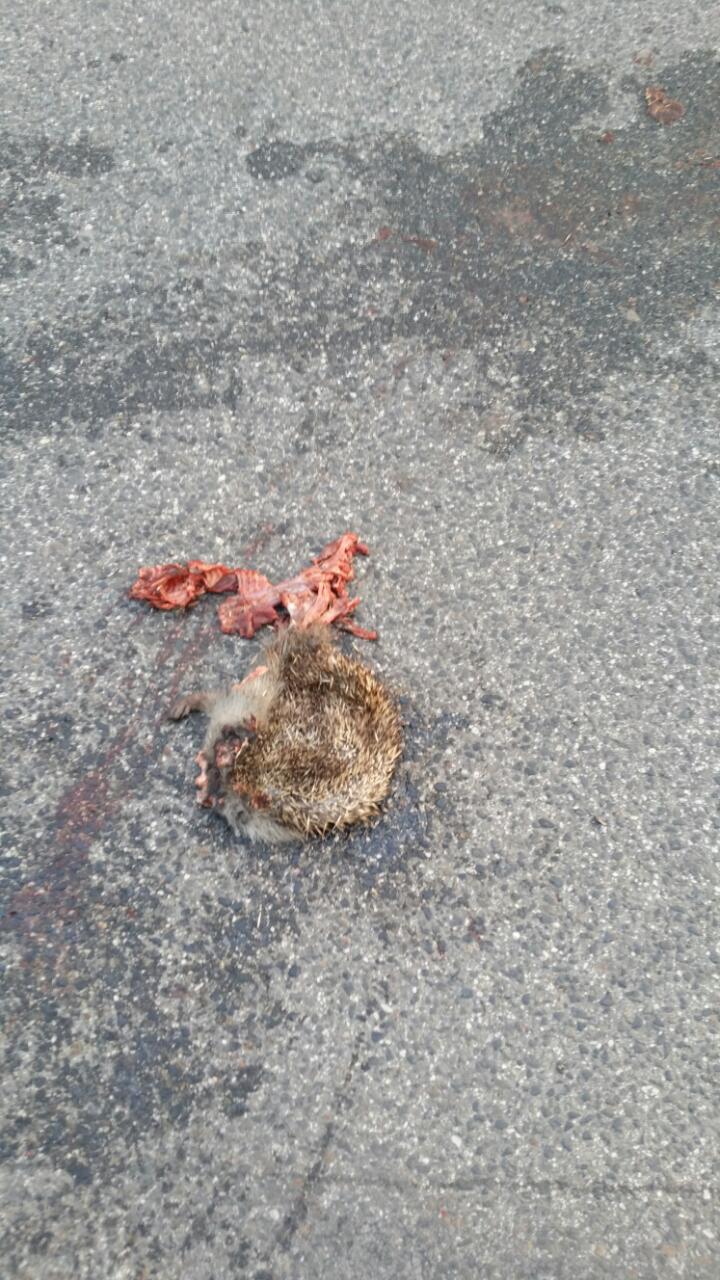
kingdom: Animalia
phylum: Chordata
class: Mammalia
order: Erinaceomorpha
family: Erinaceidae
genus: Erinaceus
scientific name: Erinaceus
